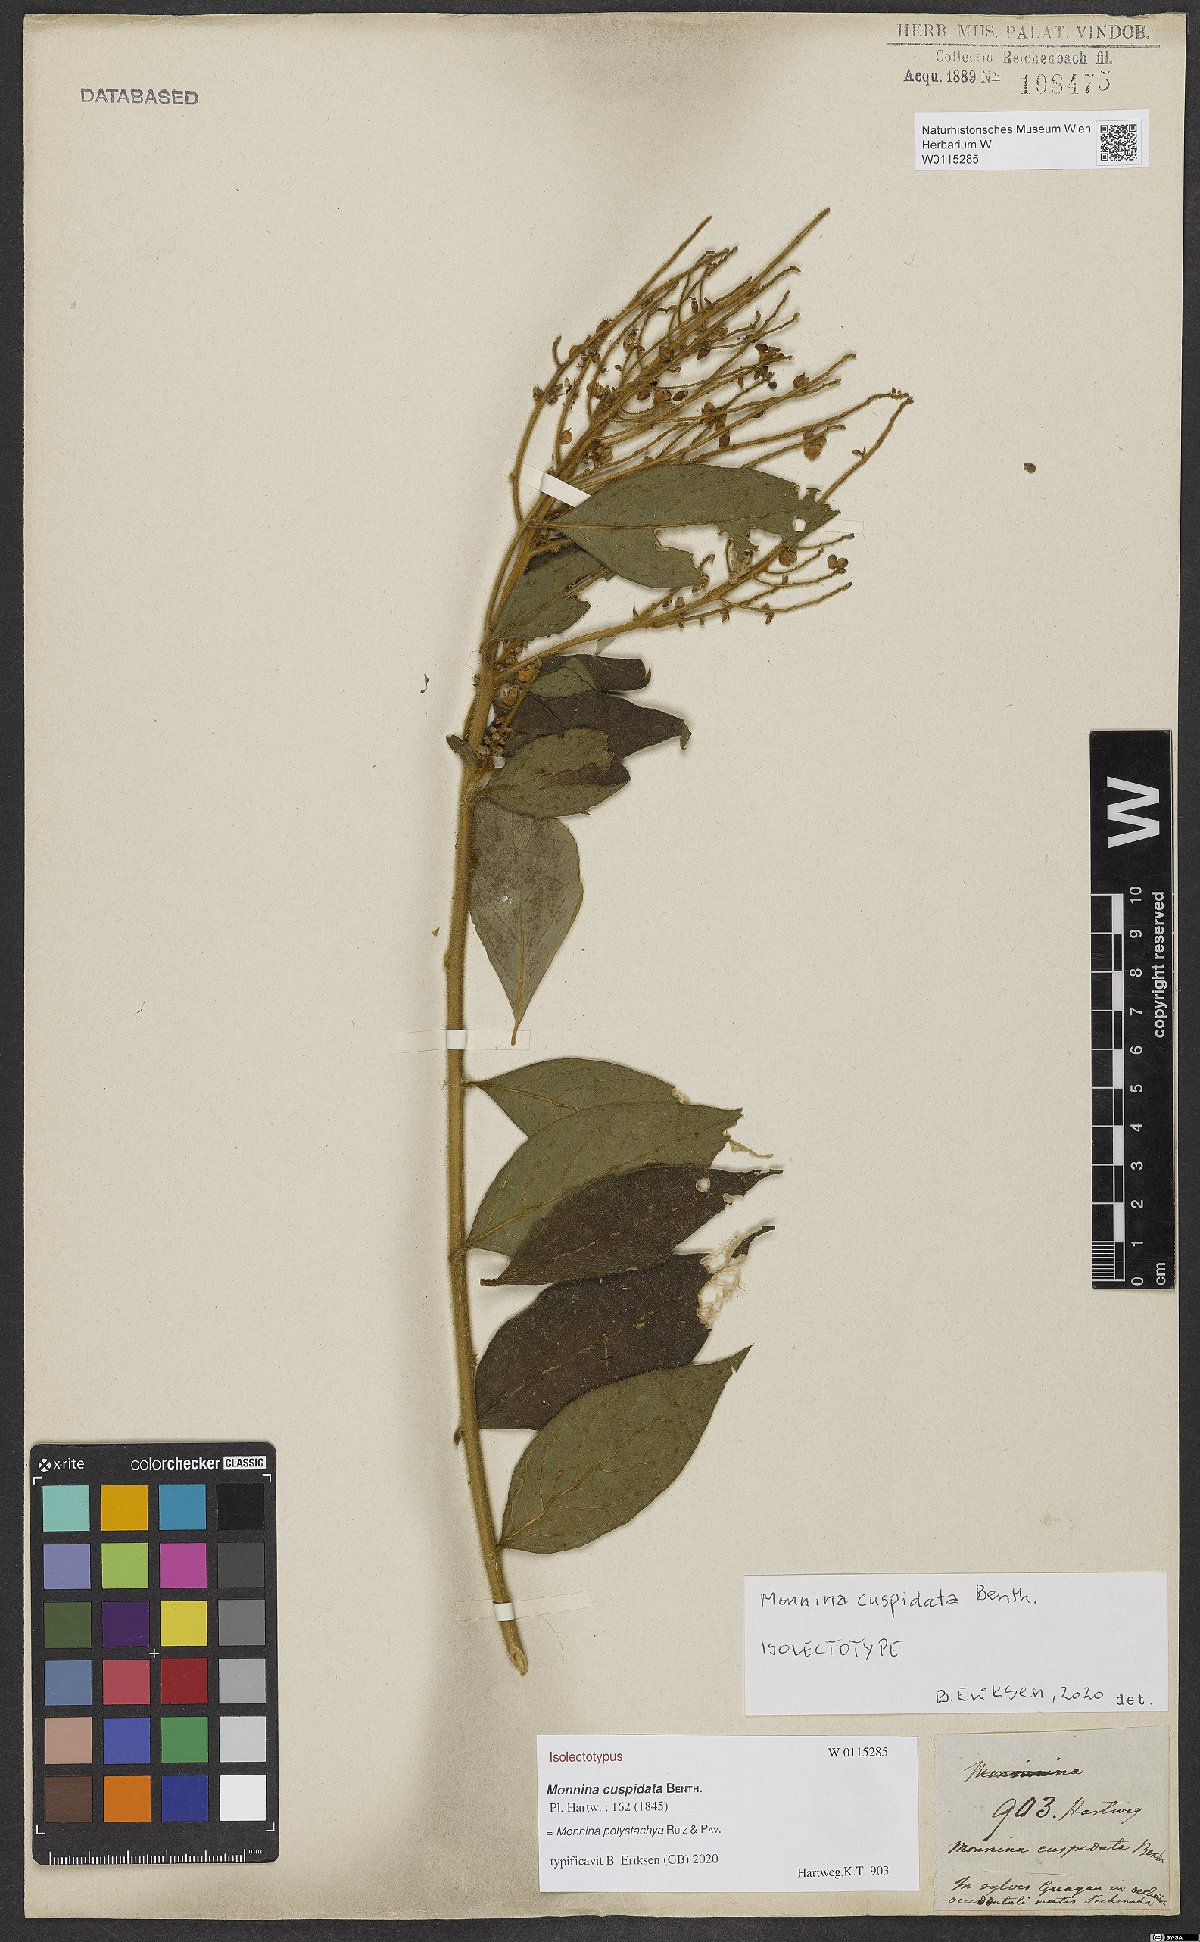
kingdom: Plantae
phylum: Tracheophyta
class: Magnoliopsida
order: Fabales
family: Polygalaceae
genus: Monnina
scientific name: Monnina polystachya
